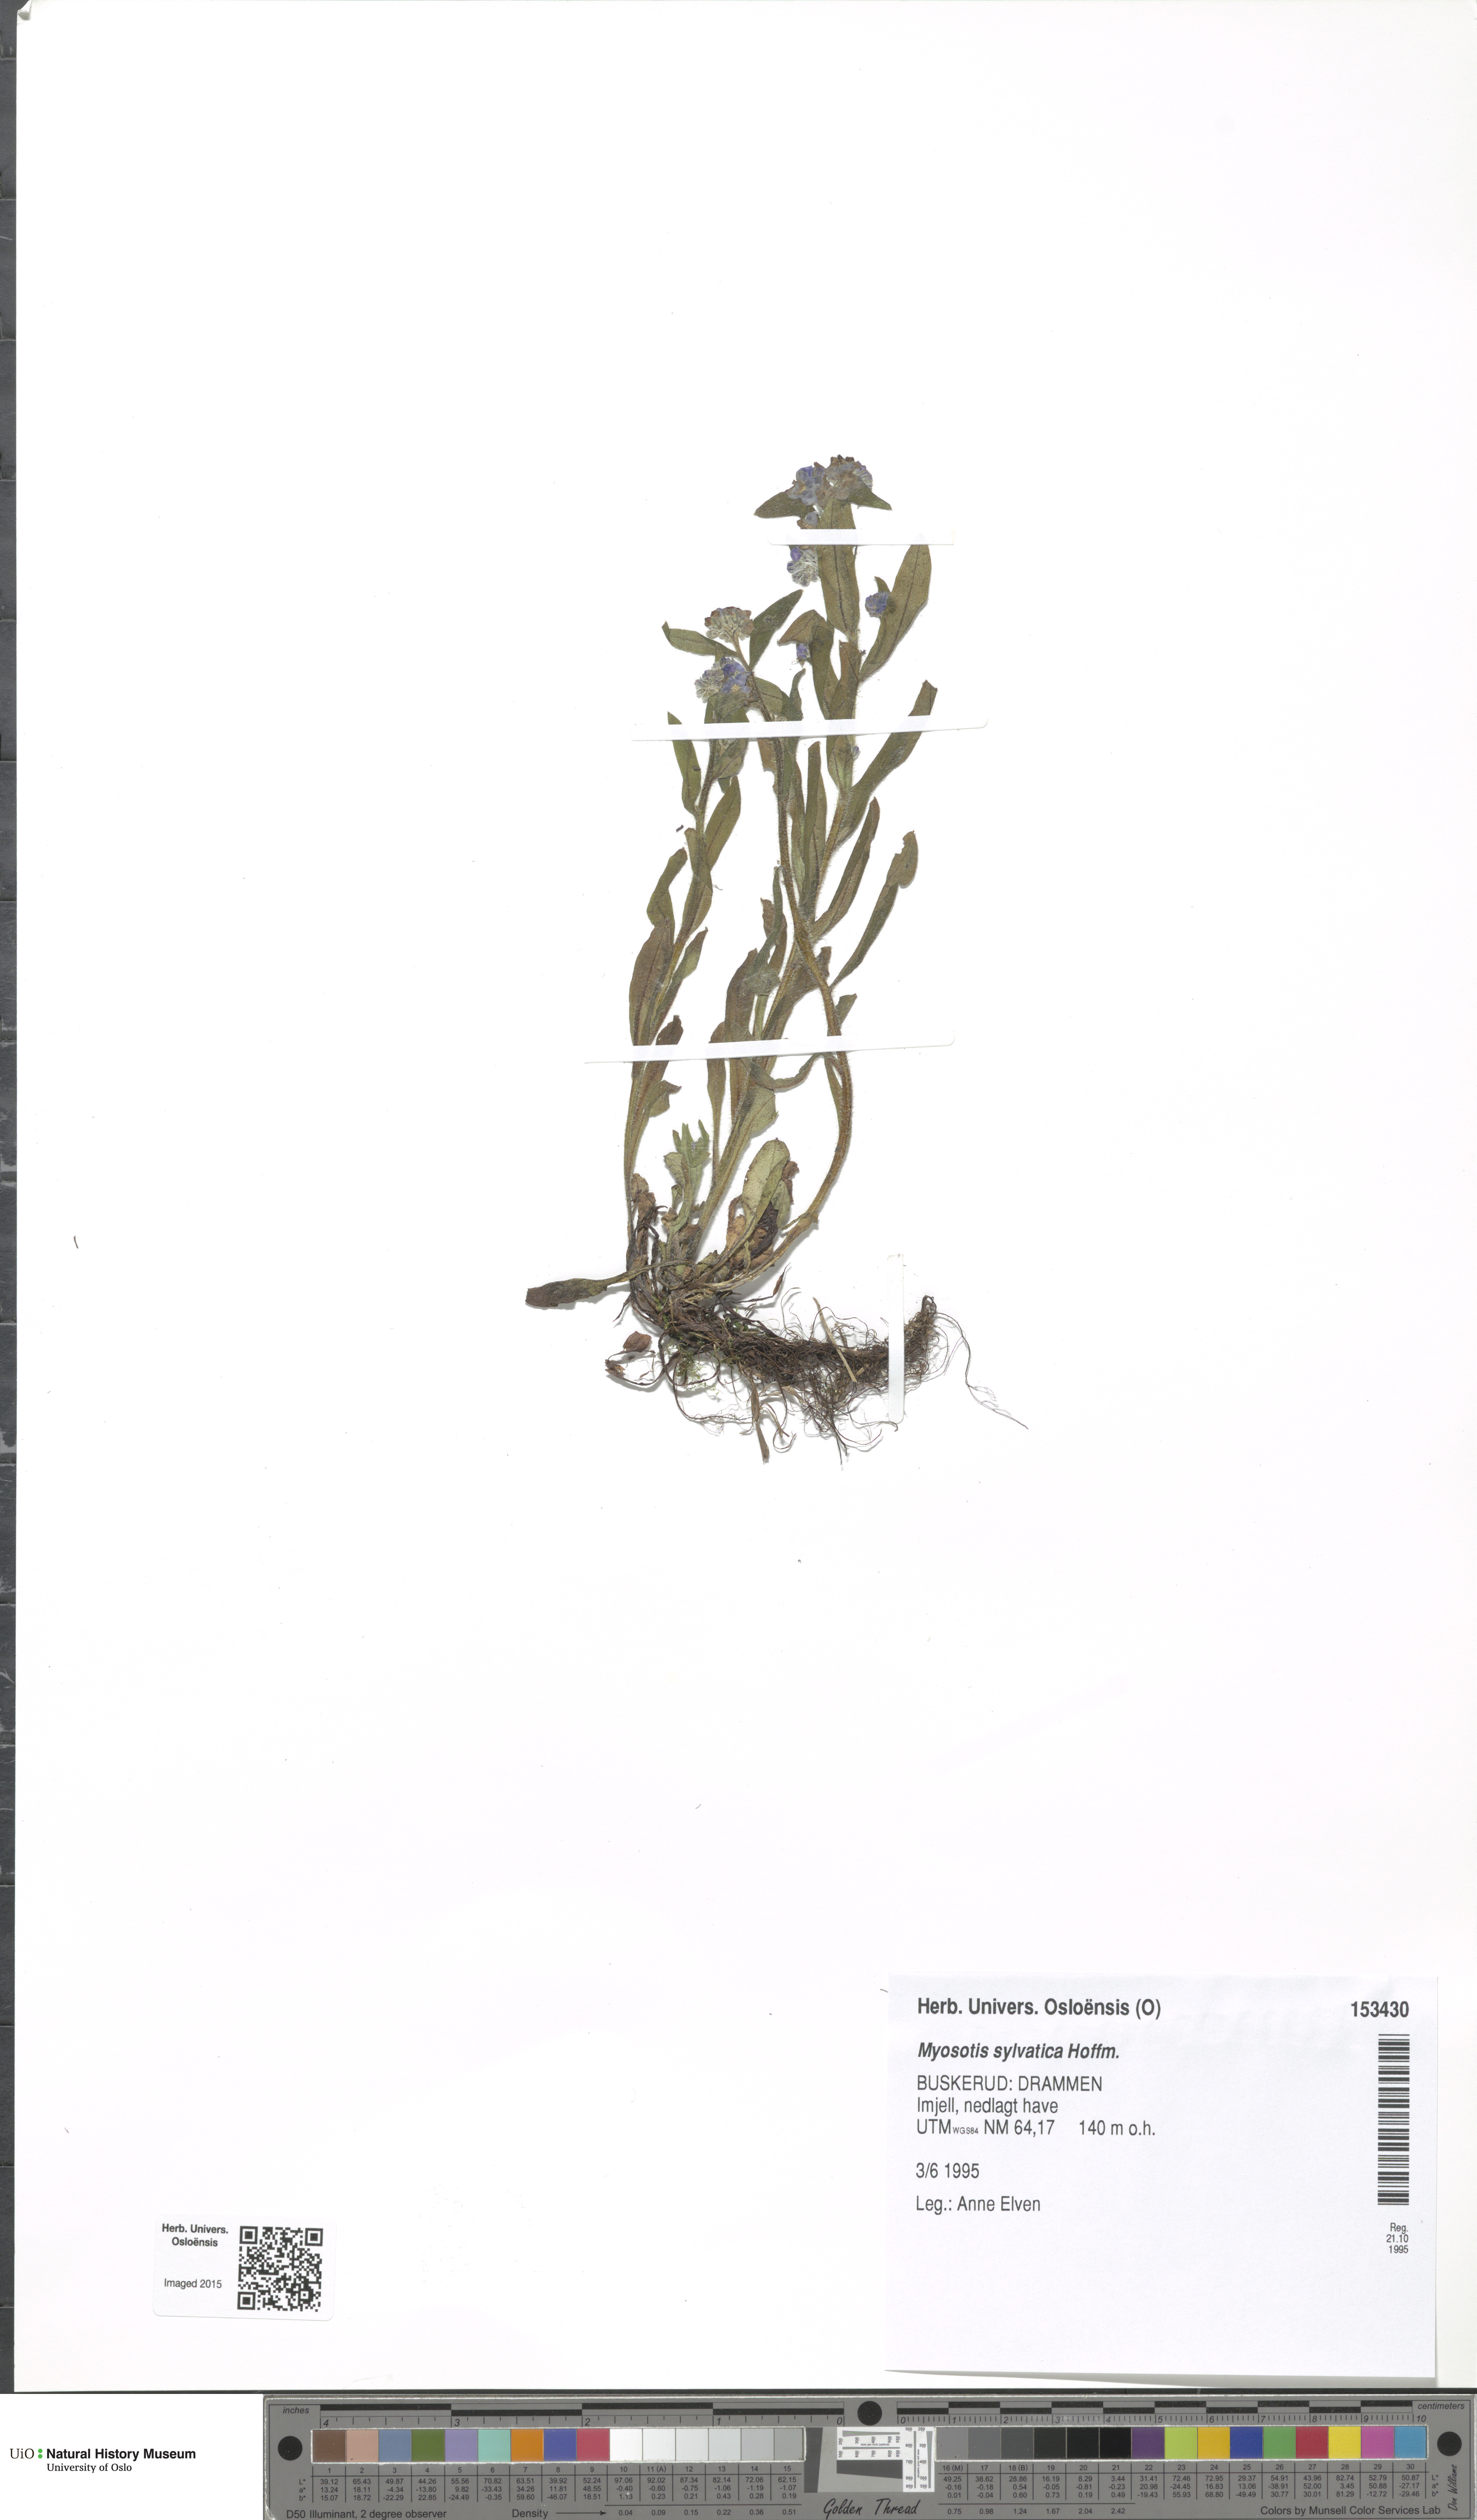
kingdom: Plantae
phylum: Tracheophyta
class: Magnoliopsida
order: Boraginales
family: Boraginaceae
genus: Myosotis
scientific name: Myosotis sylvatica
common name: Wood forget-me-not
